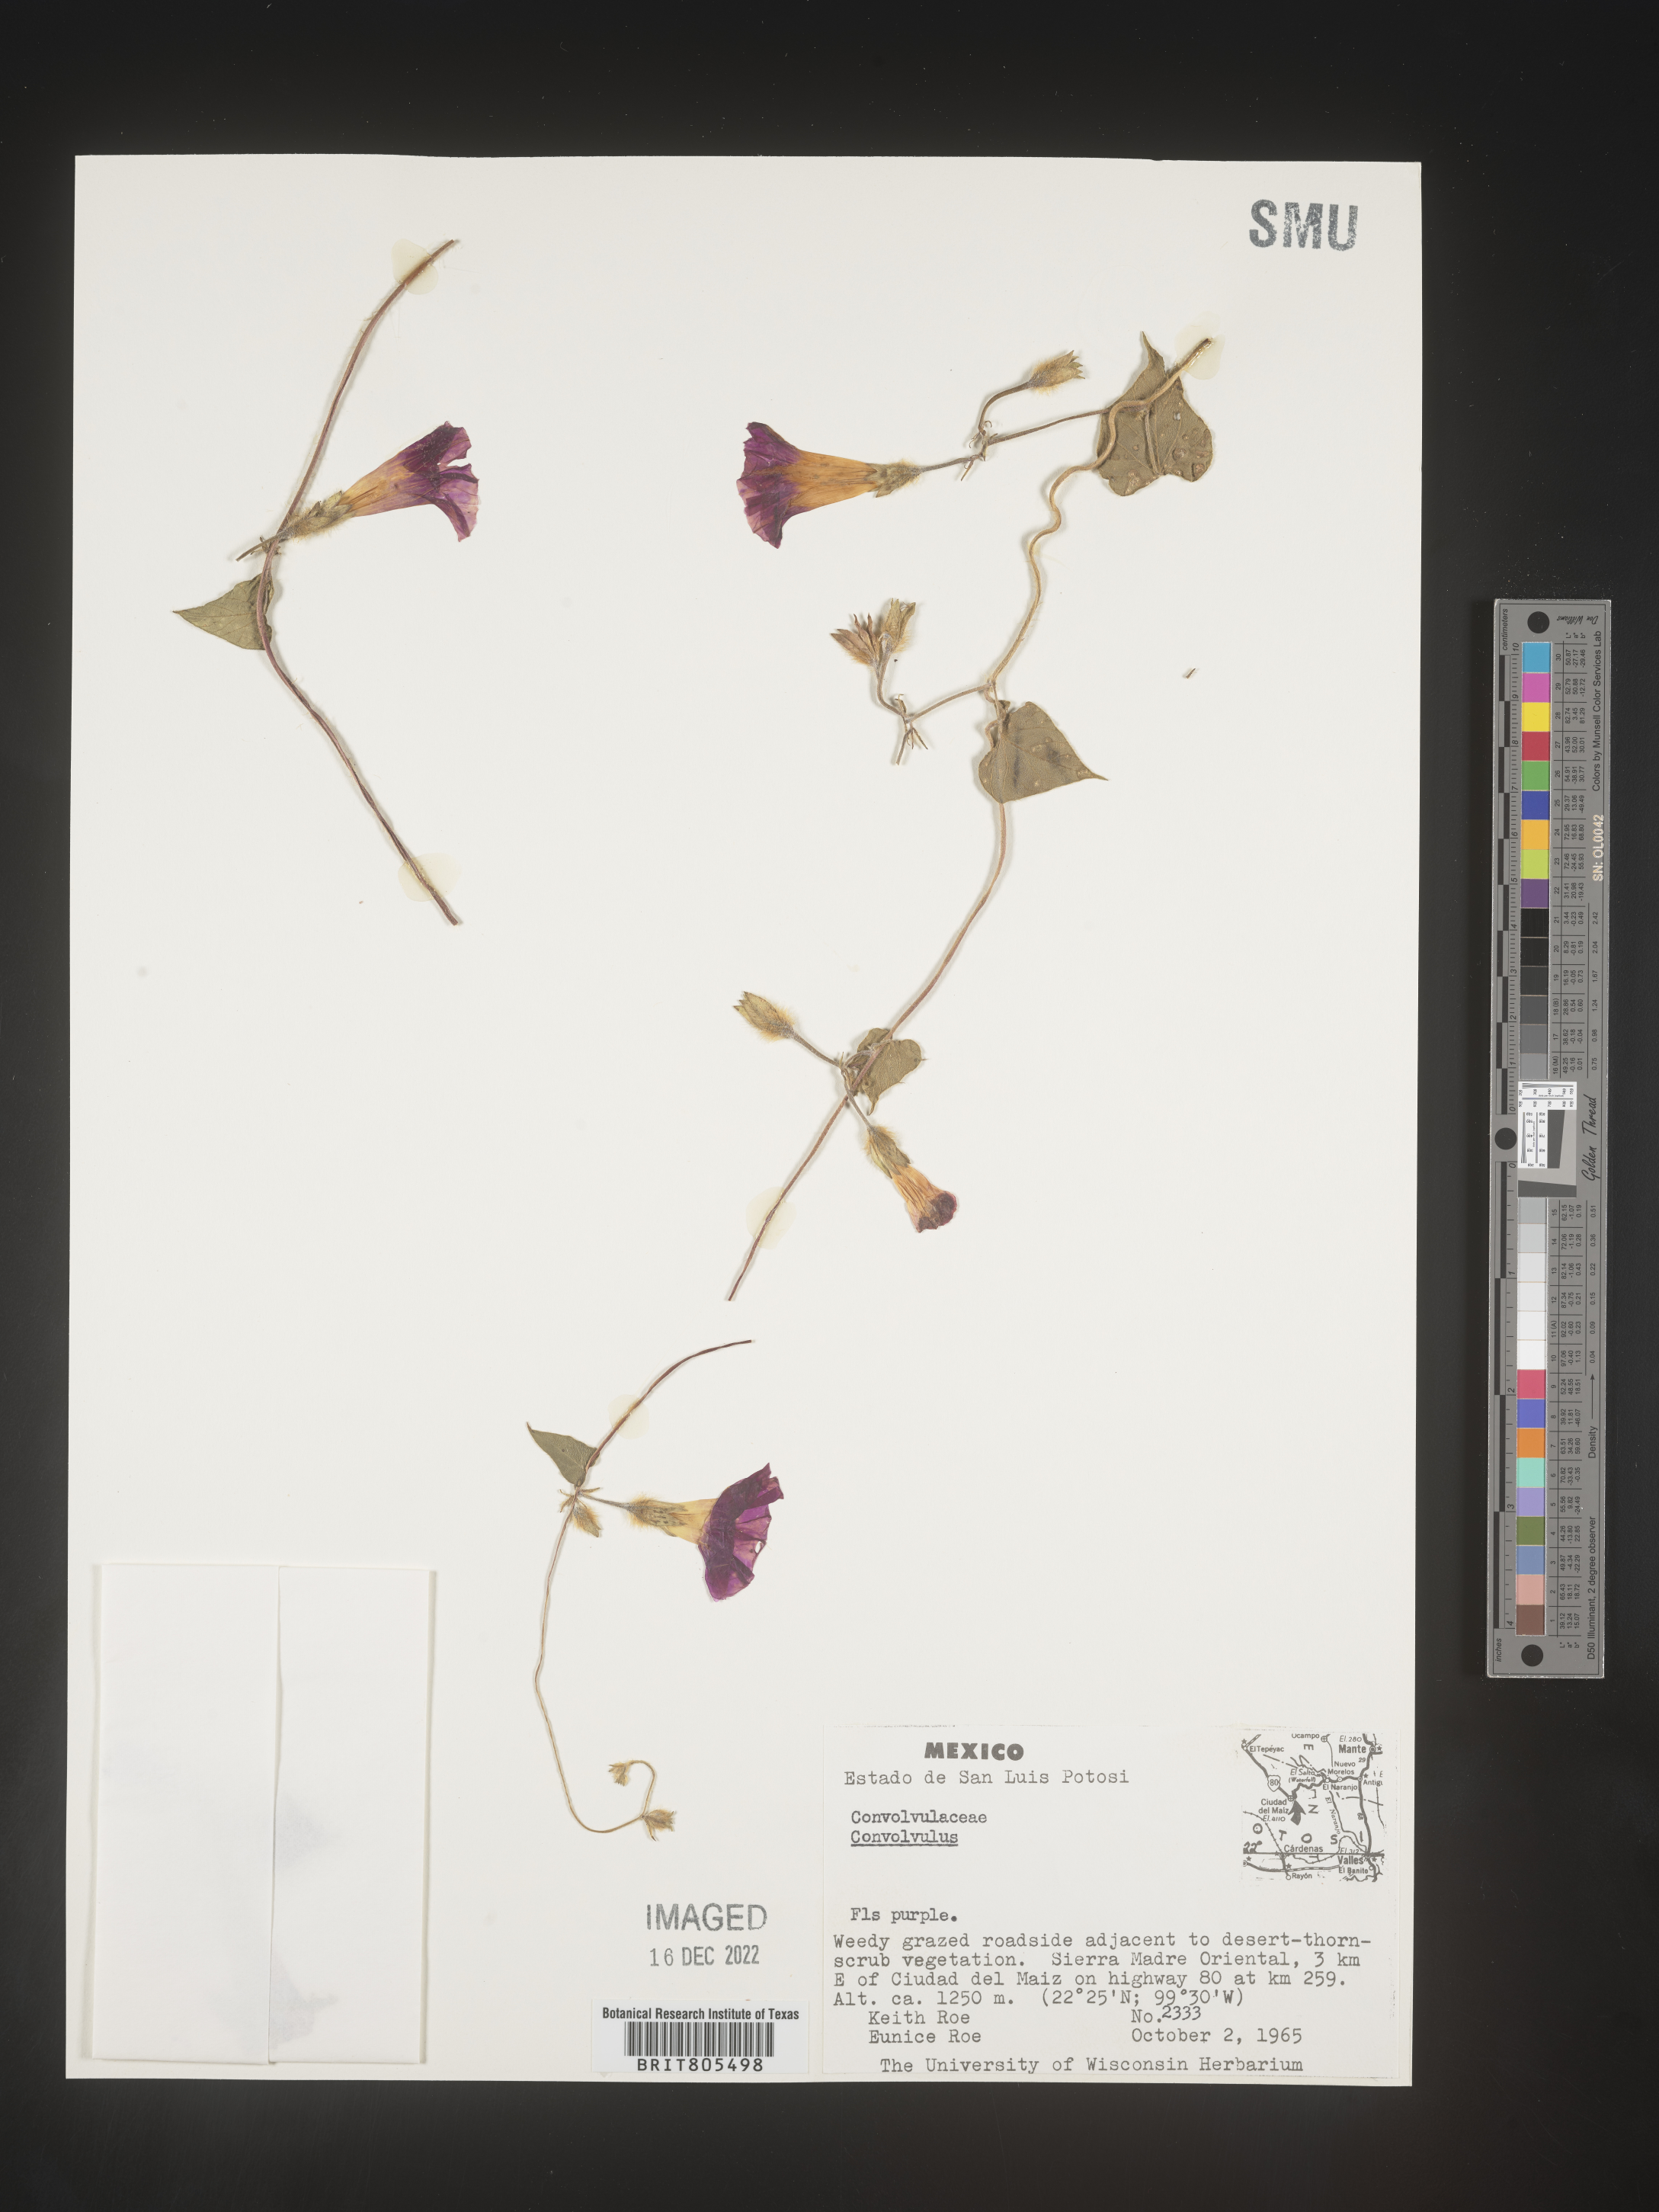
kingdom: Plantae
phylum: Tracheophyta
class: Magnoliopsida
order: Solanales
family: Convolvulaceae
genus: Ipomoea
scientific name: Ipomoea
